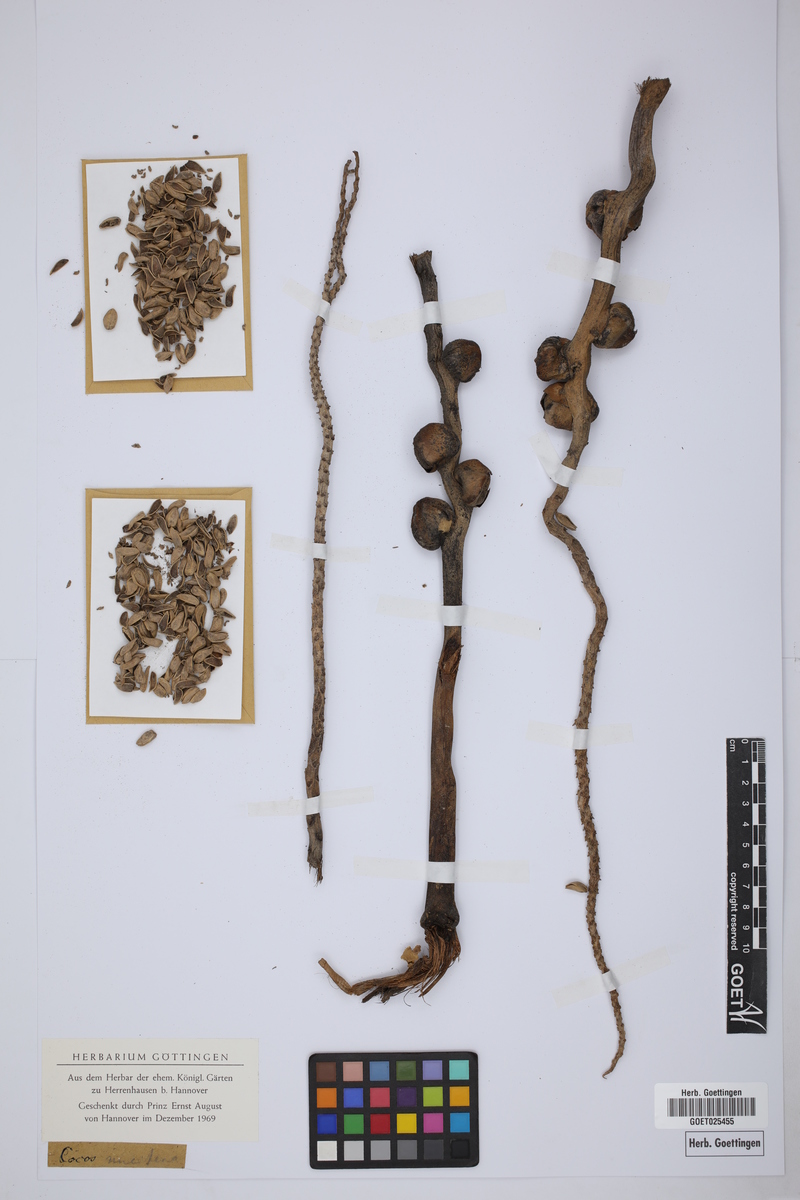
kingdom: Plantae
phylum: Tracheophyta
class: Liliopsida
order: Arecales
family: Arecaceae
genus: Cocos
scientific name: Cocos nucifera
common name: Coconut palm
